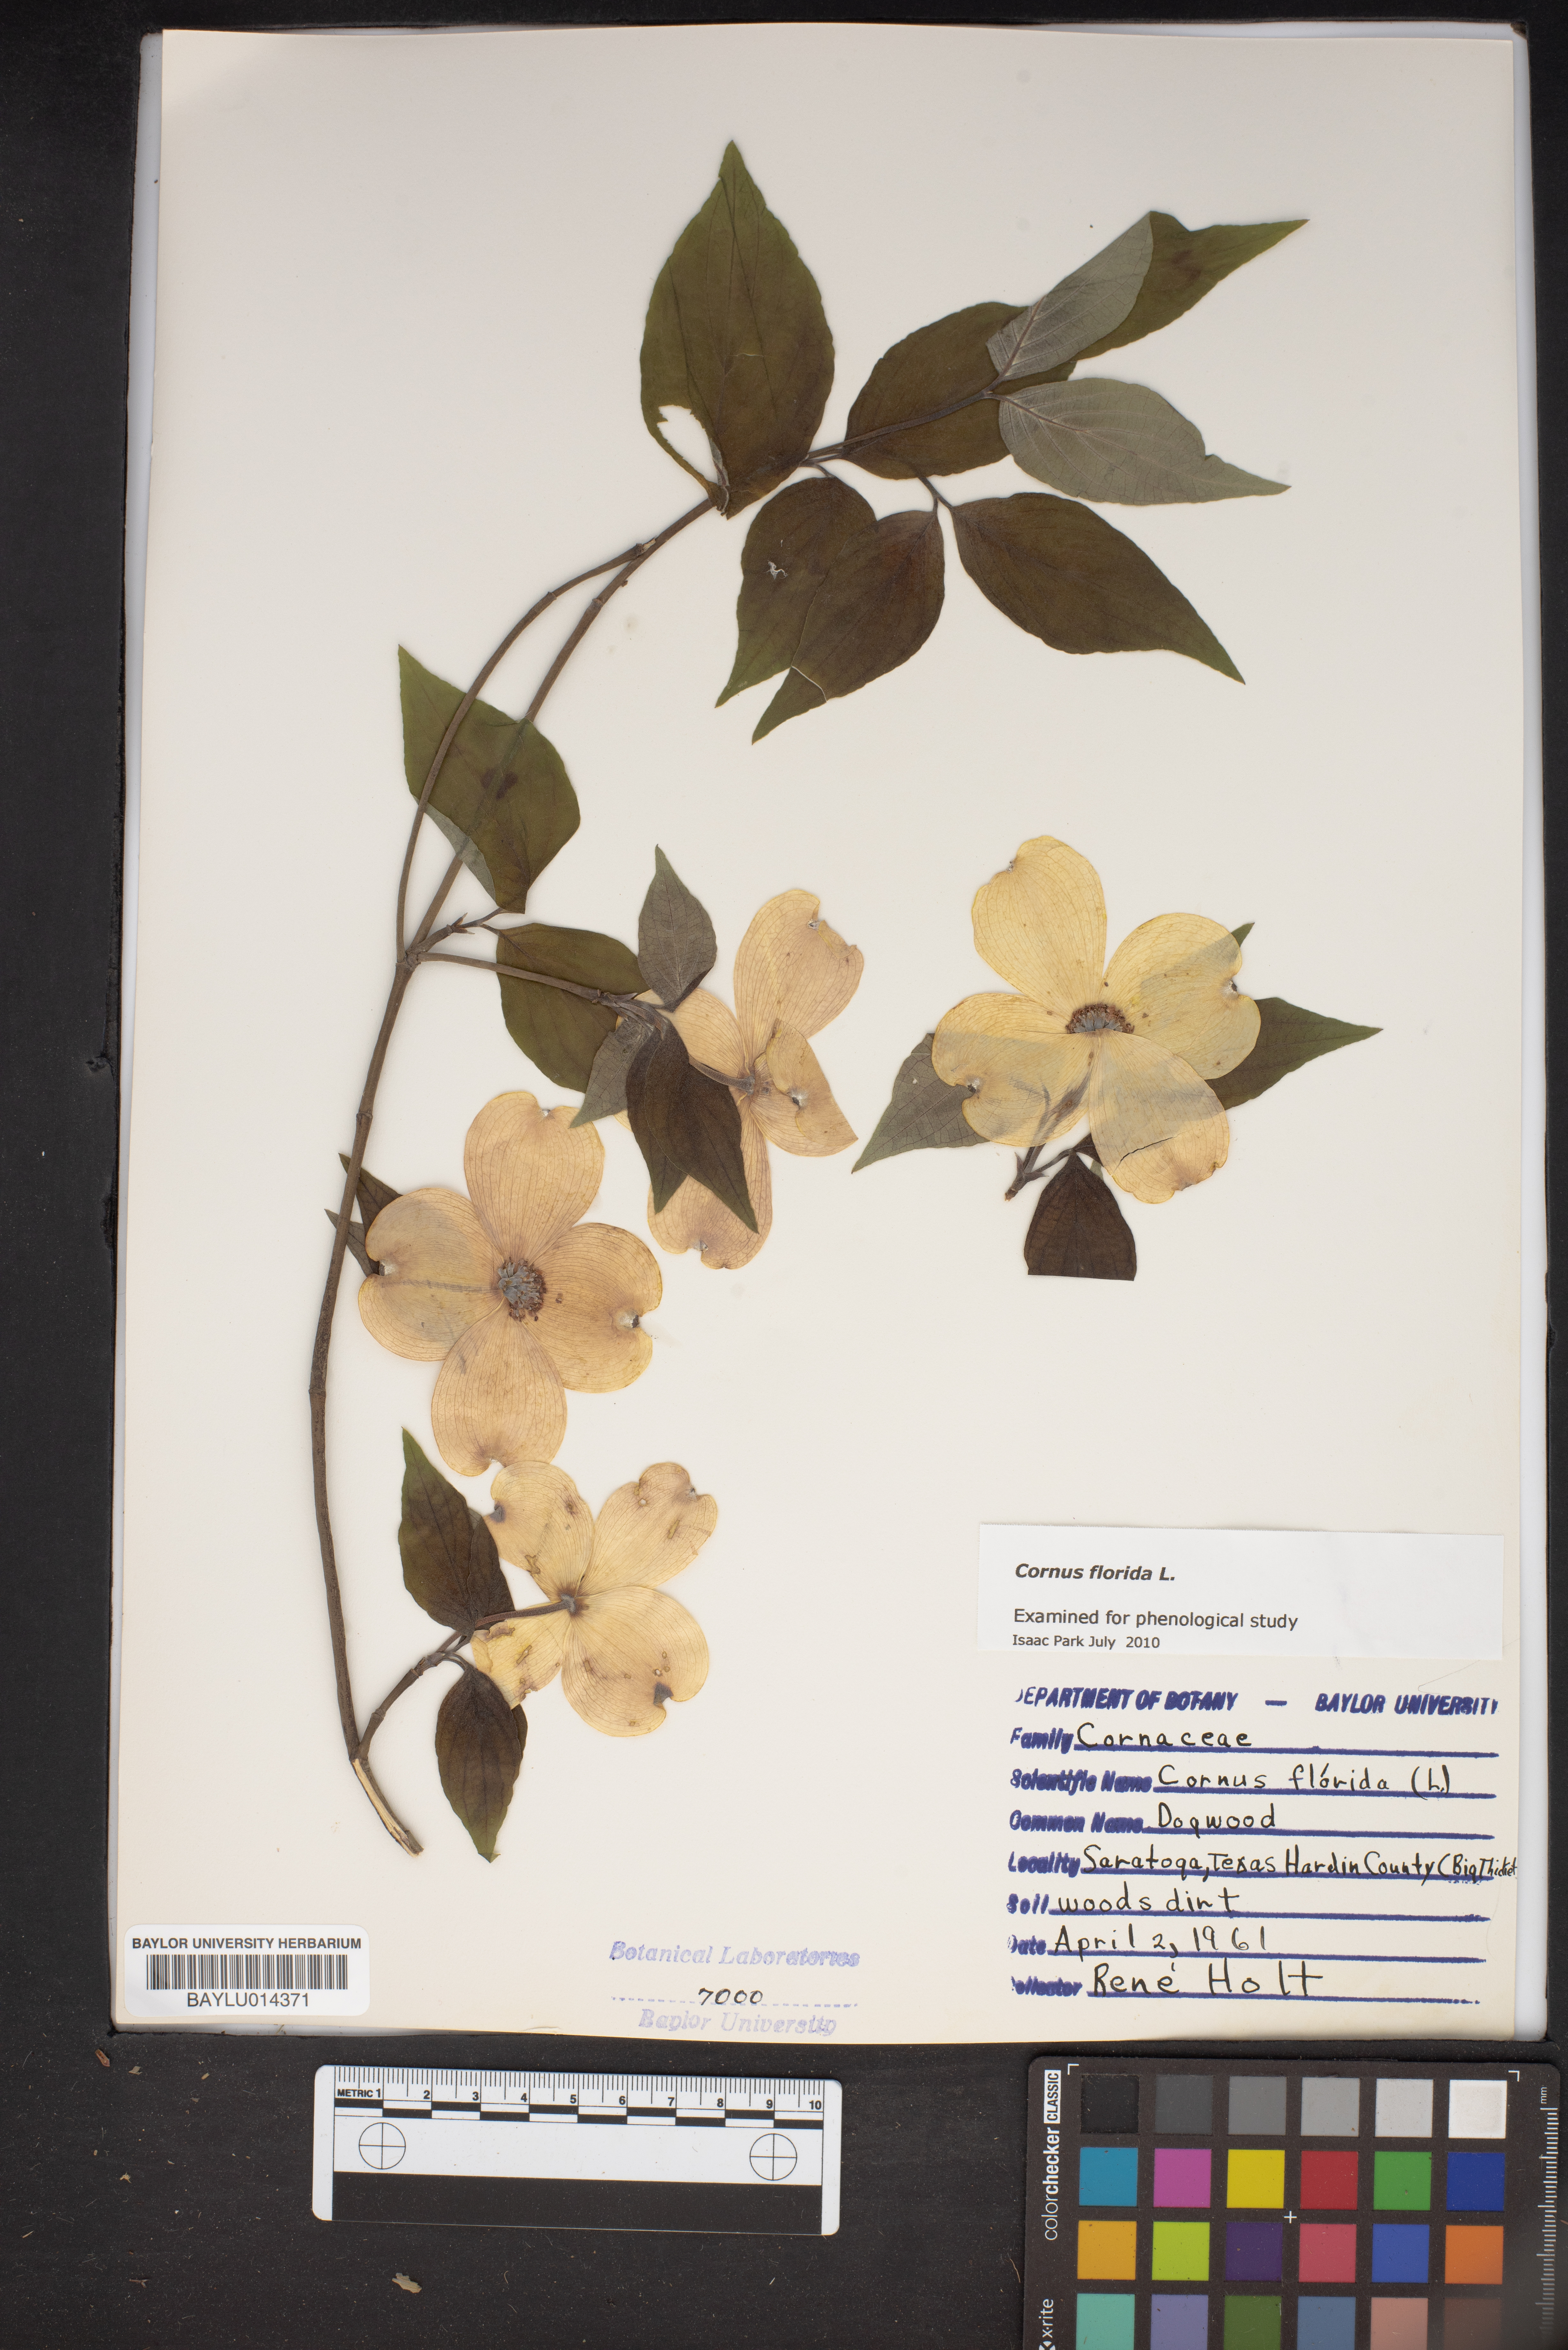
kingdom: Plantae
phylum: Tracheophyta
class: Magnoliopsida
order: Cornales
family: Cornaceae
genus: Cornus
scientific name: Cornus florida
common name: Flowering dogwood
